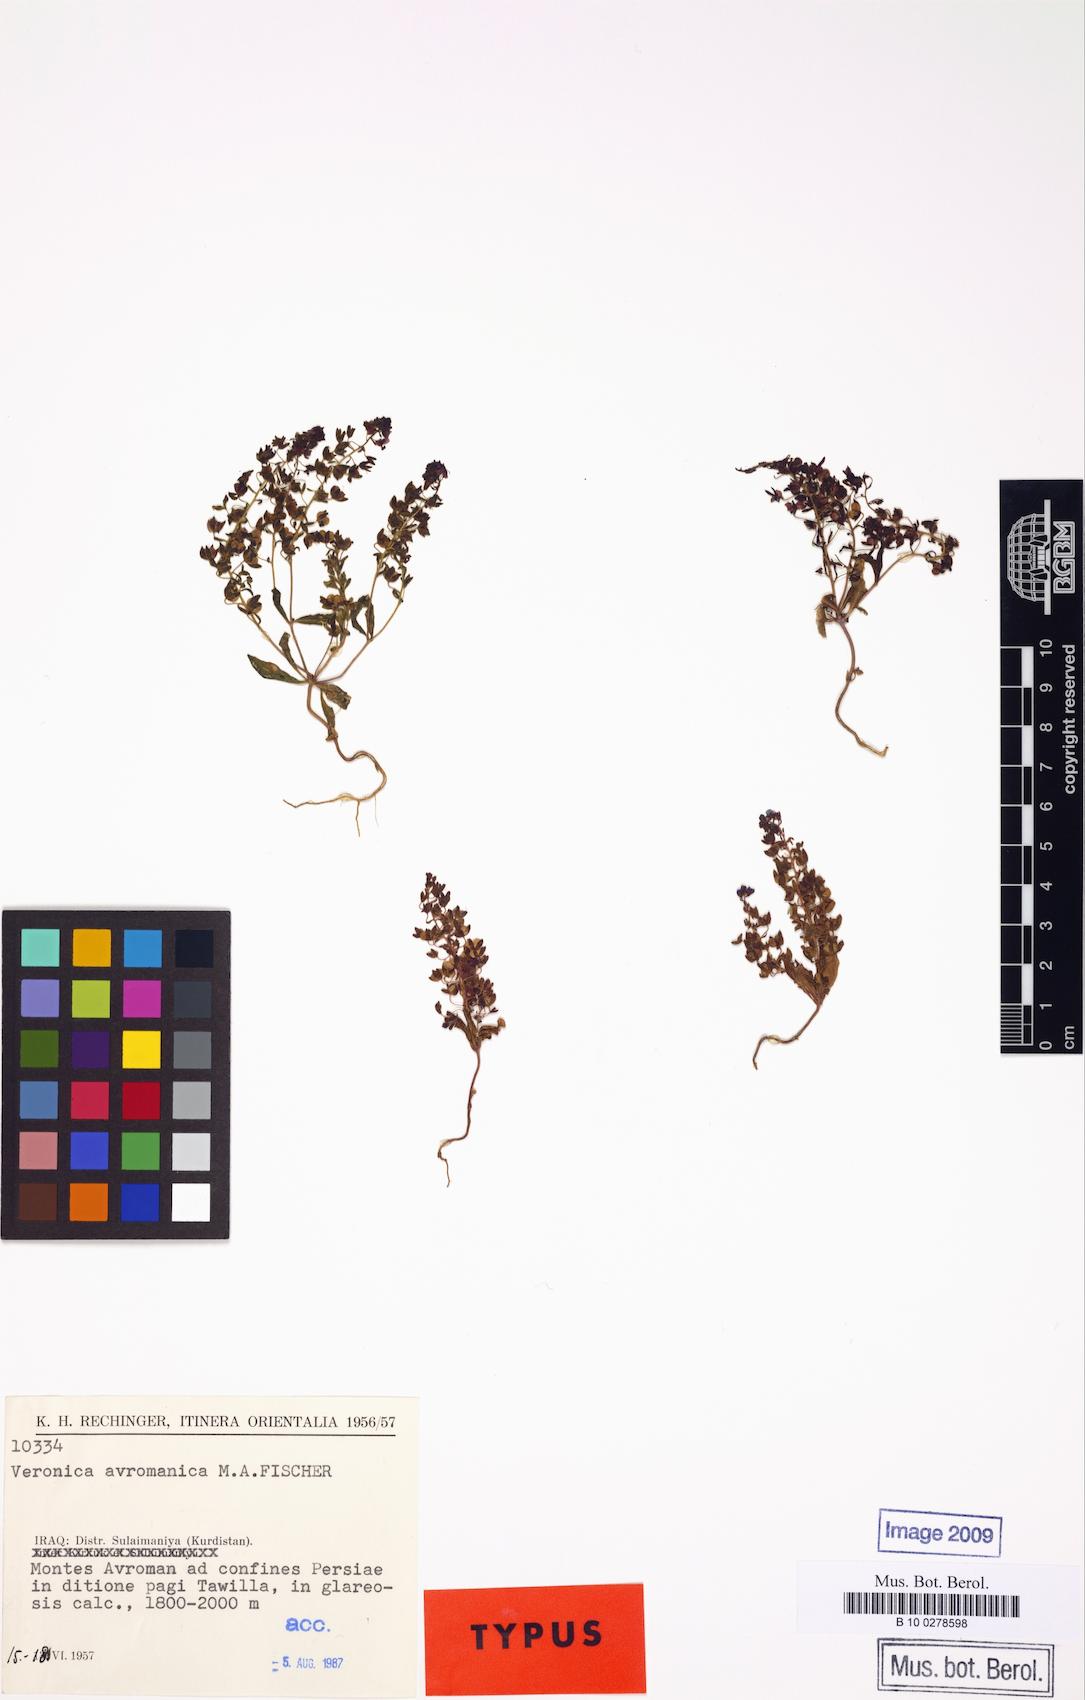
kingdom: Plantae
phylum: Tracheophyta
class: Magnoliopsida
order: Lamiales
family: Plantaginaceae
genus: Veronica
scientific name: Veronica avromanica
